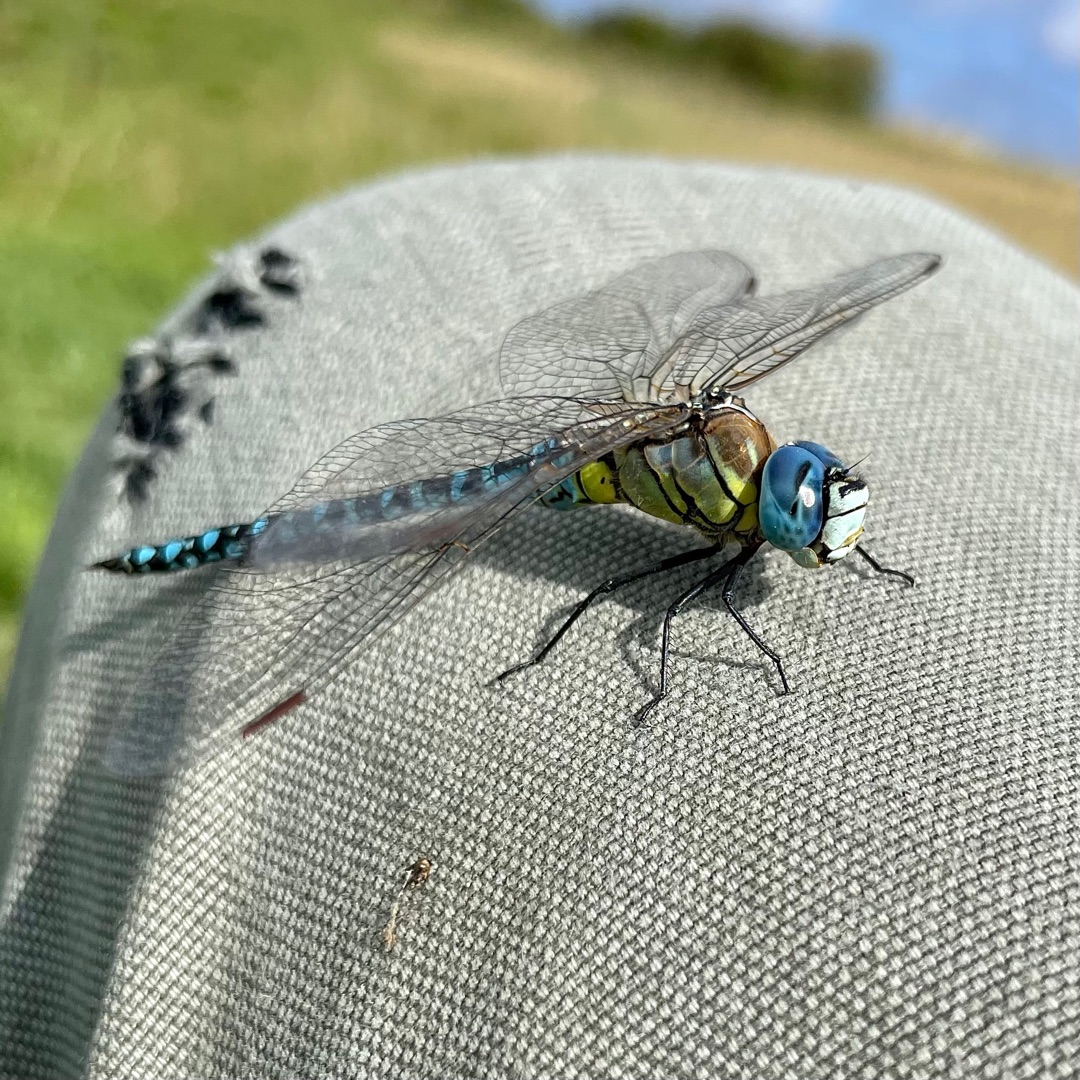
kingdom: Animalia
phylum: Arthropoda
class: Insecta
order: Odonata
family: Aeshnidae
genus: Aeshna
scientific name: Aeshna affinis
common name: Sydlig mosaikguldsmed
